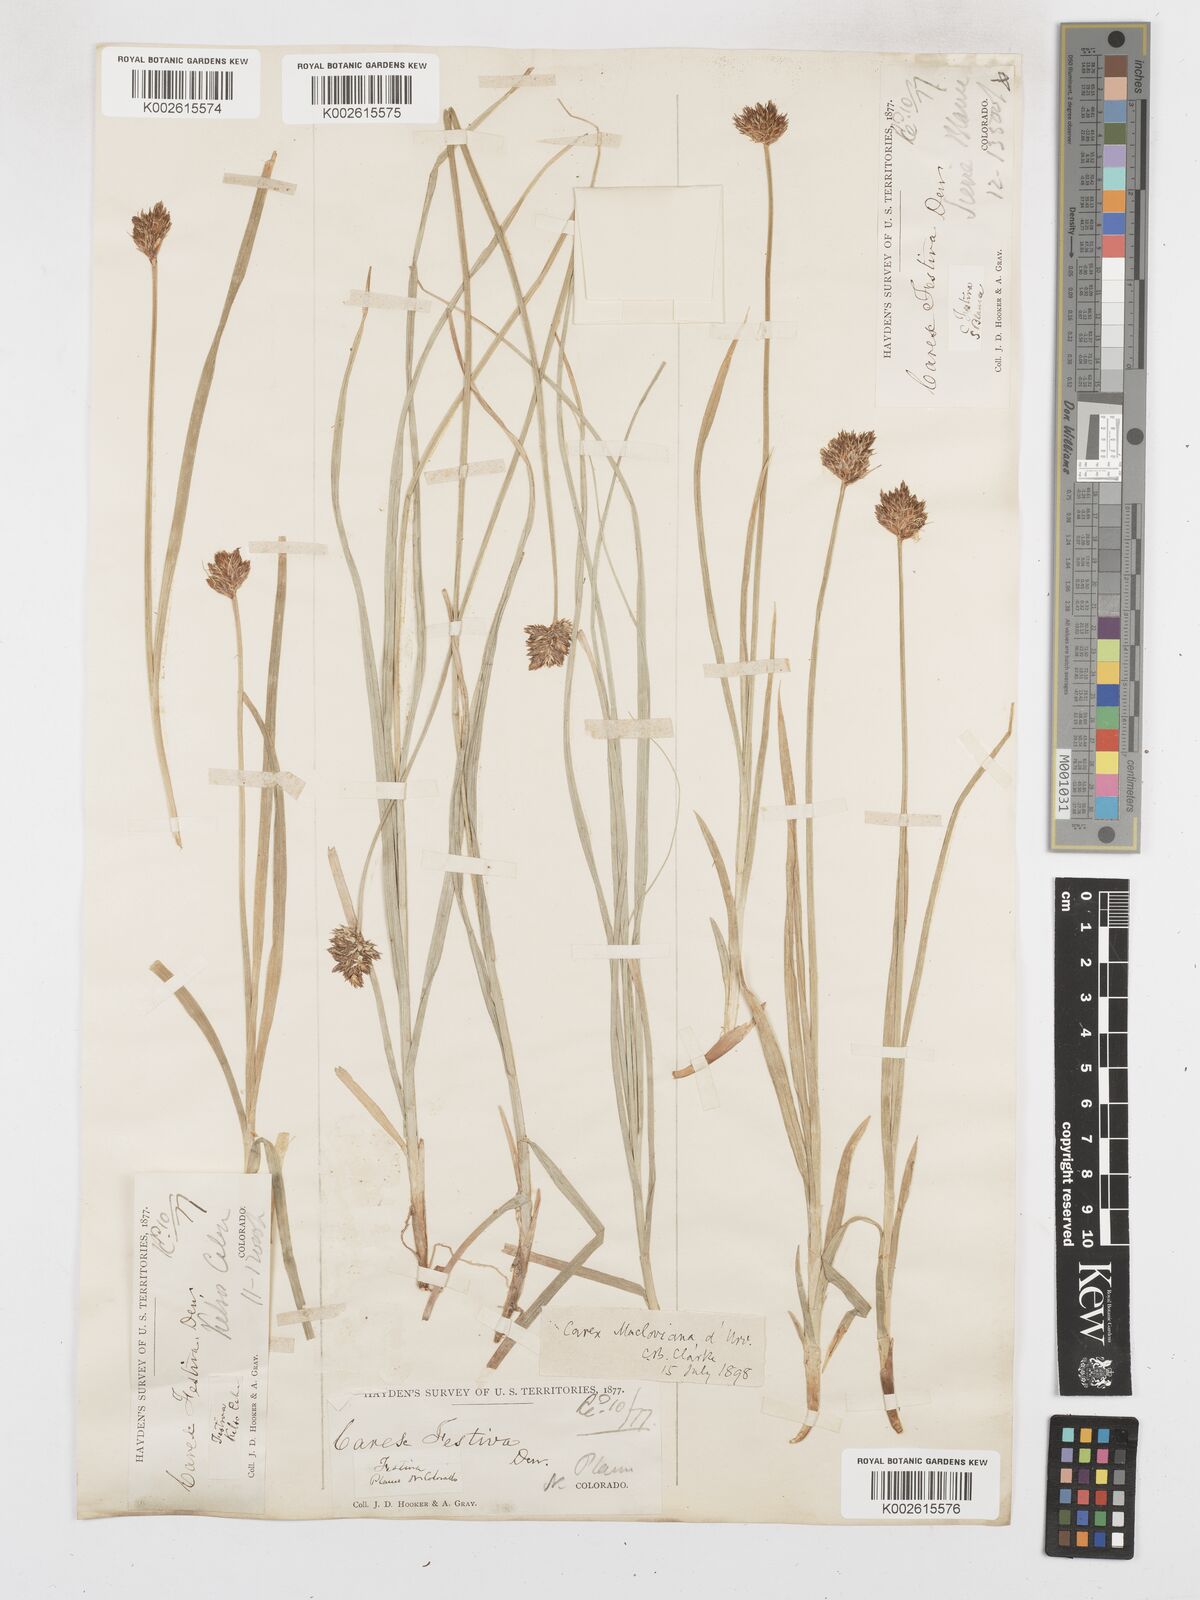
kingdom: Plantae
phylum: Tracheophyta
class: Liliopsida
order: Poales
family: Cyperaceae
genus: Carex
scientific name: Carex macloviana
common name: Falkland island sedge
